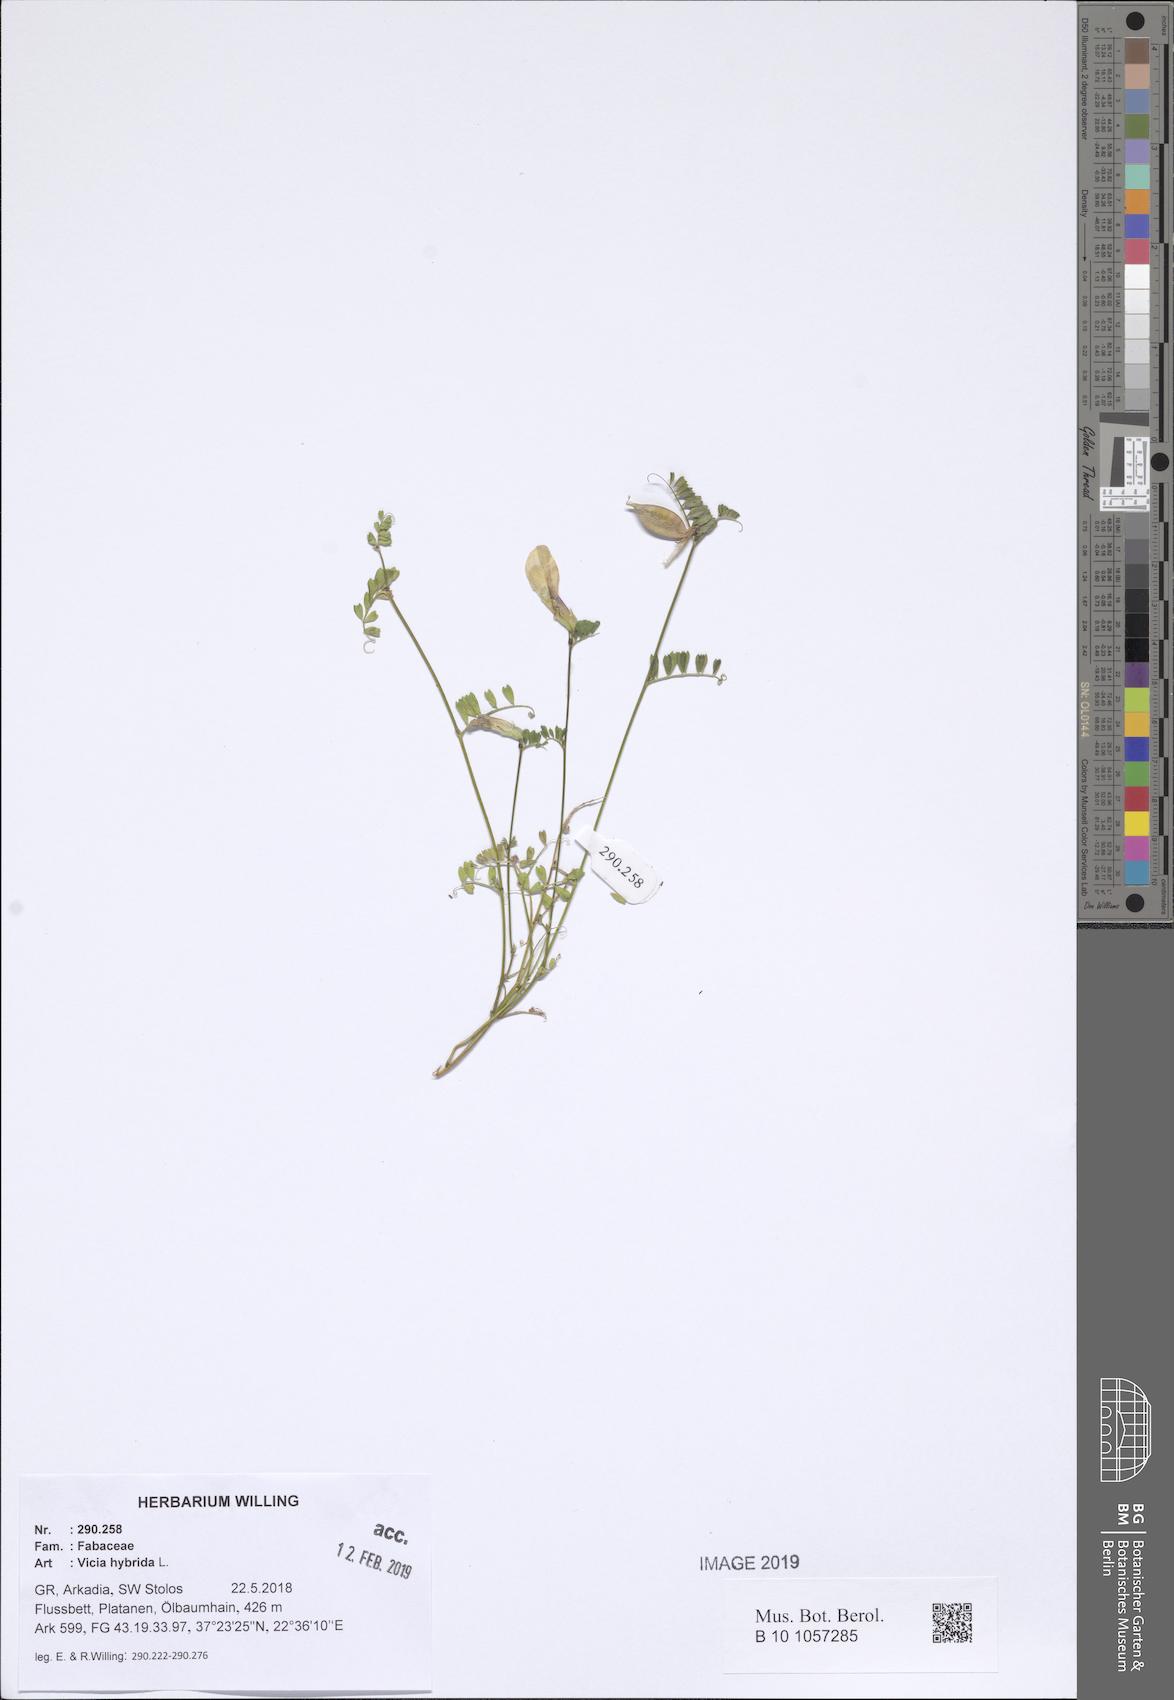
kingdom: Plantae
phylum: Tracheophyta
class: Magnoliopsida
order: Fabales
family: Fabaceae
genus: Vicia
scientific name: Vicia hybrida
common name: Hairy yellow vetch
